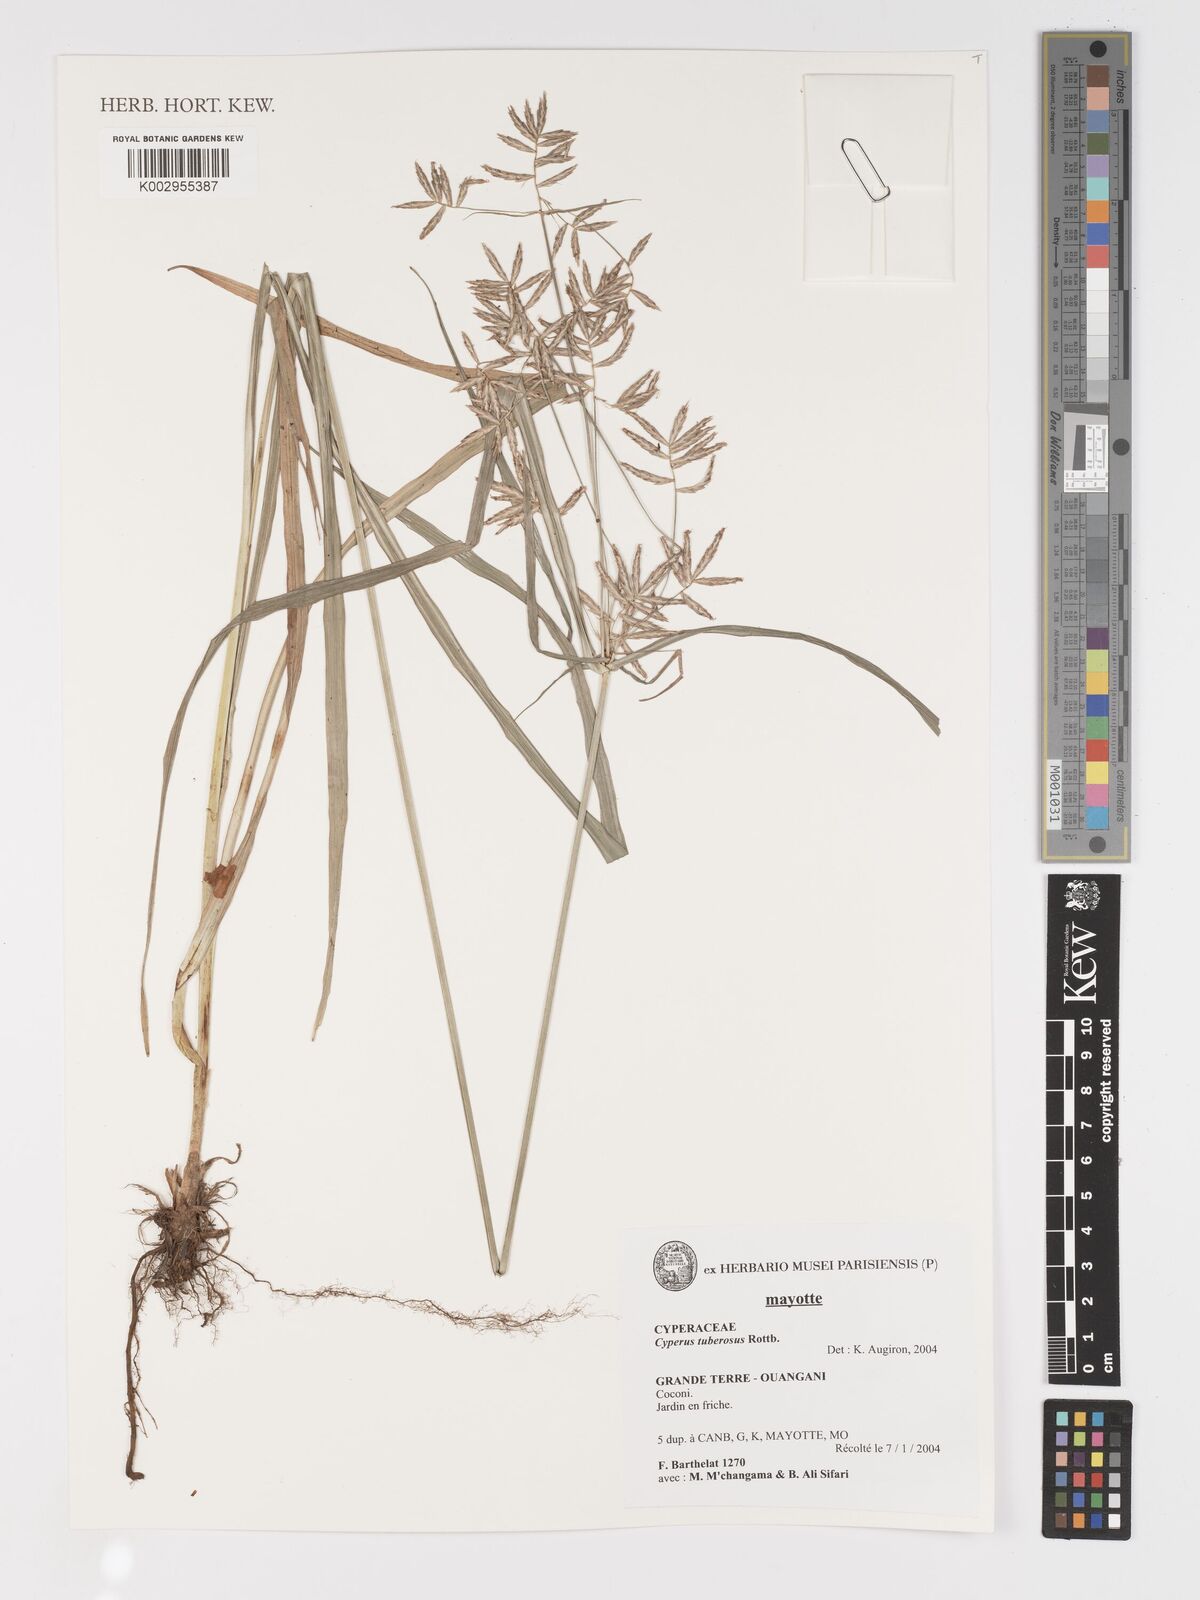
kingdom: Plantae
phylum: Tracheophyta
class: Liliopsida
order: Poales
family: Cyperaceae
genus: Cyperus
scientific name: Cyperus tuberosus
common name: Nut grass
